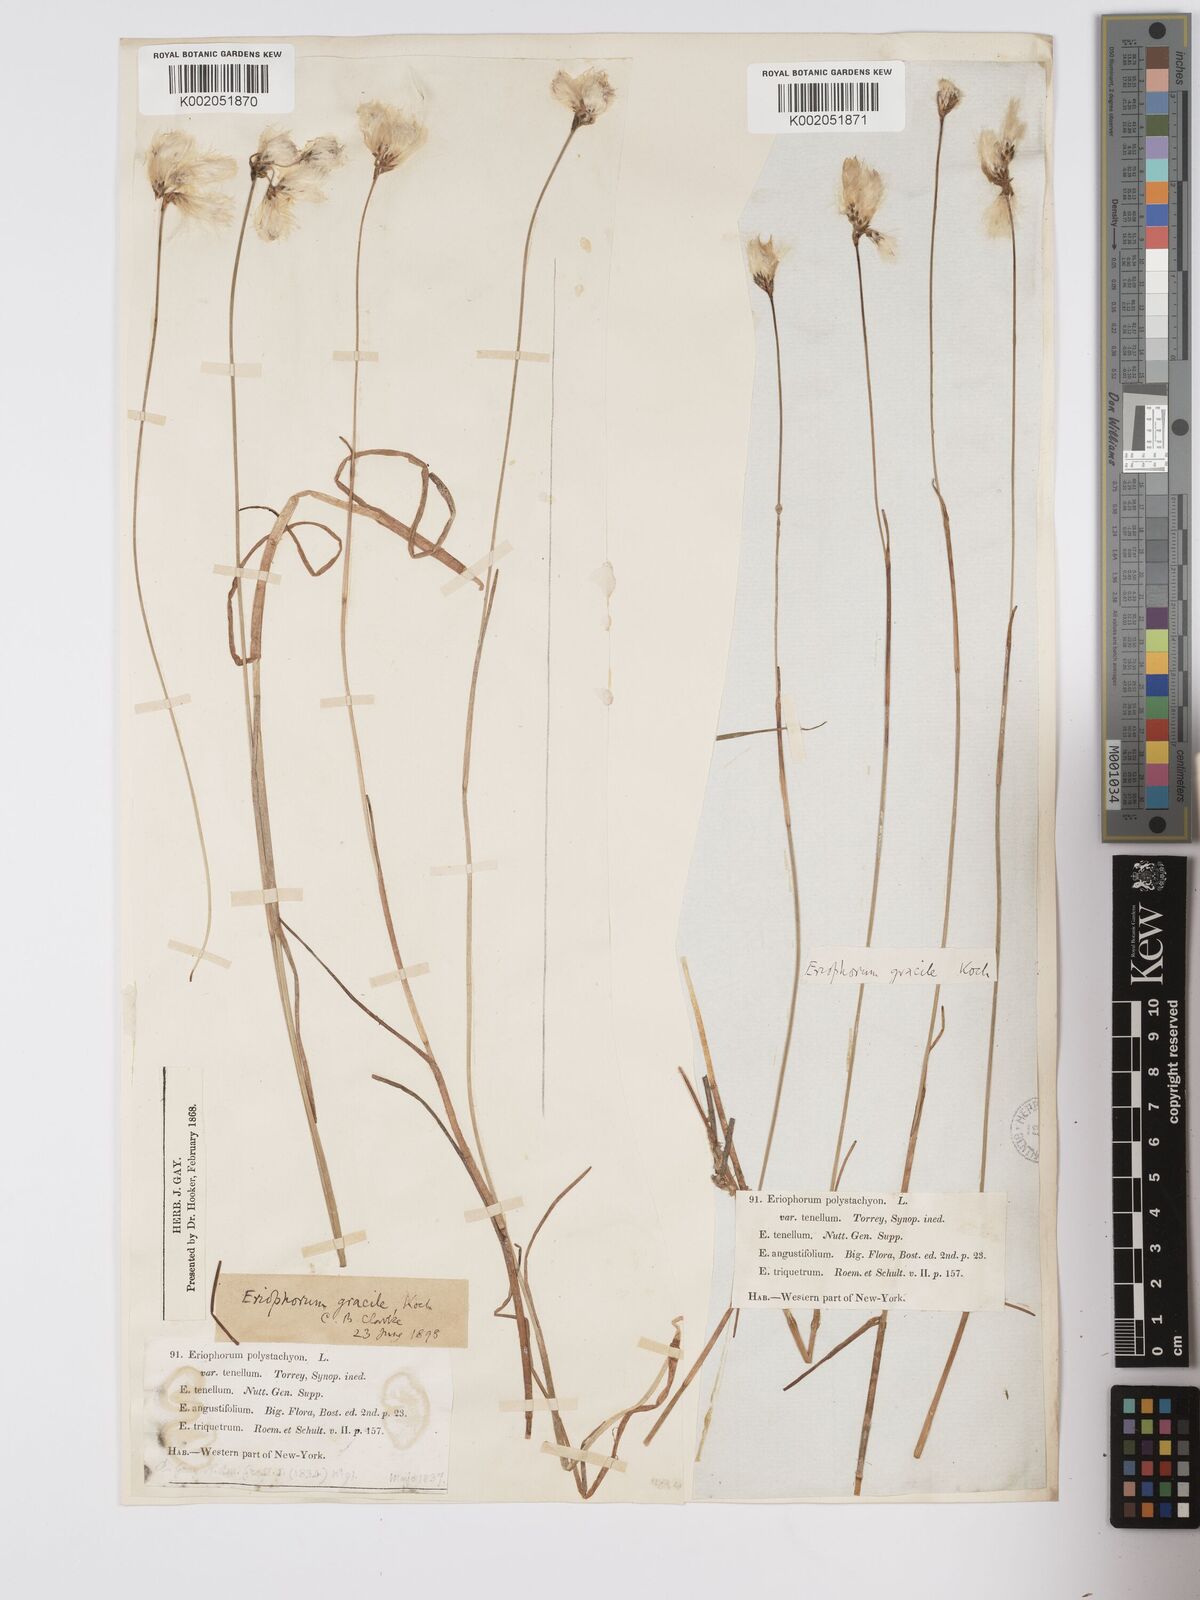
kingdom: Plantae
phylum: Tracheophyta
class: Liliopsida
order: Poales
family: Cyperaceae
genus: Eriophorum
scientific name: Eriophorum gracile
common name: Slender cottongrass
